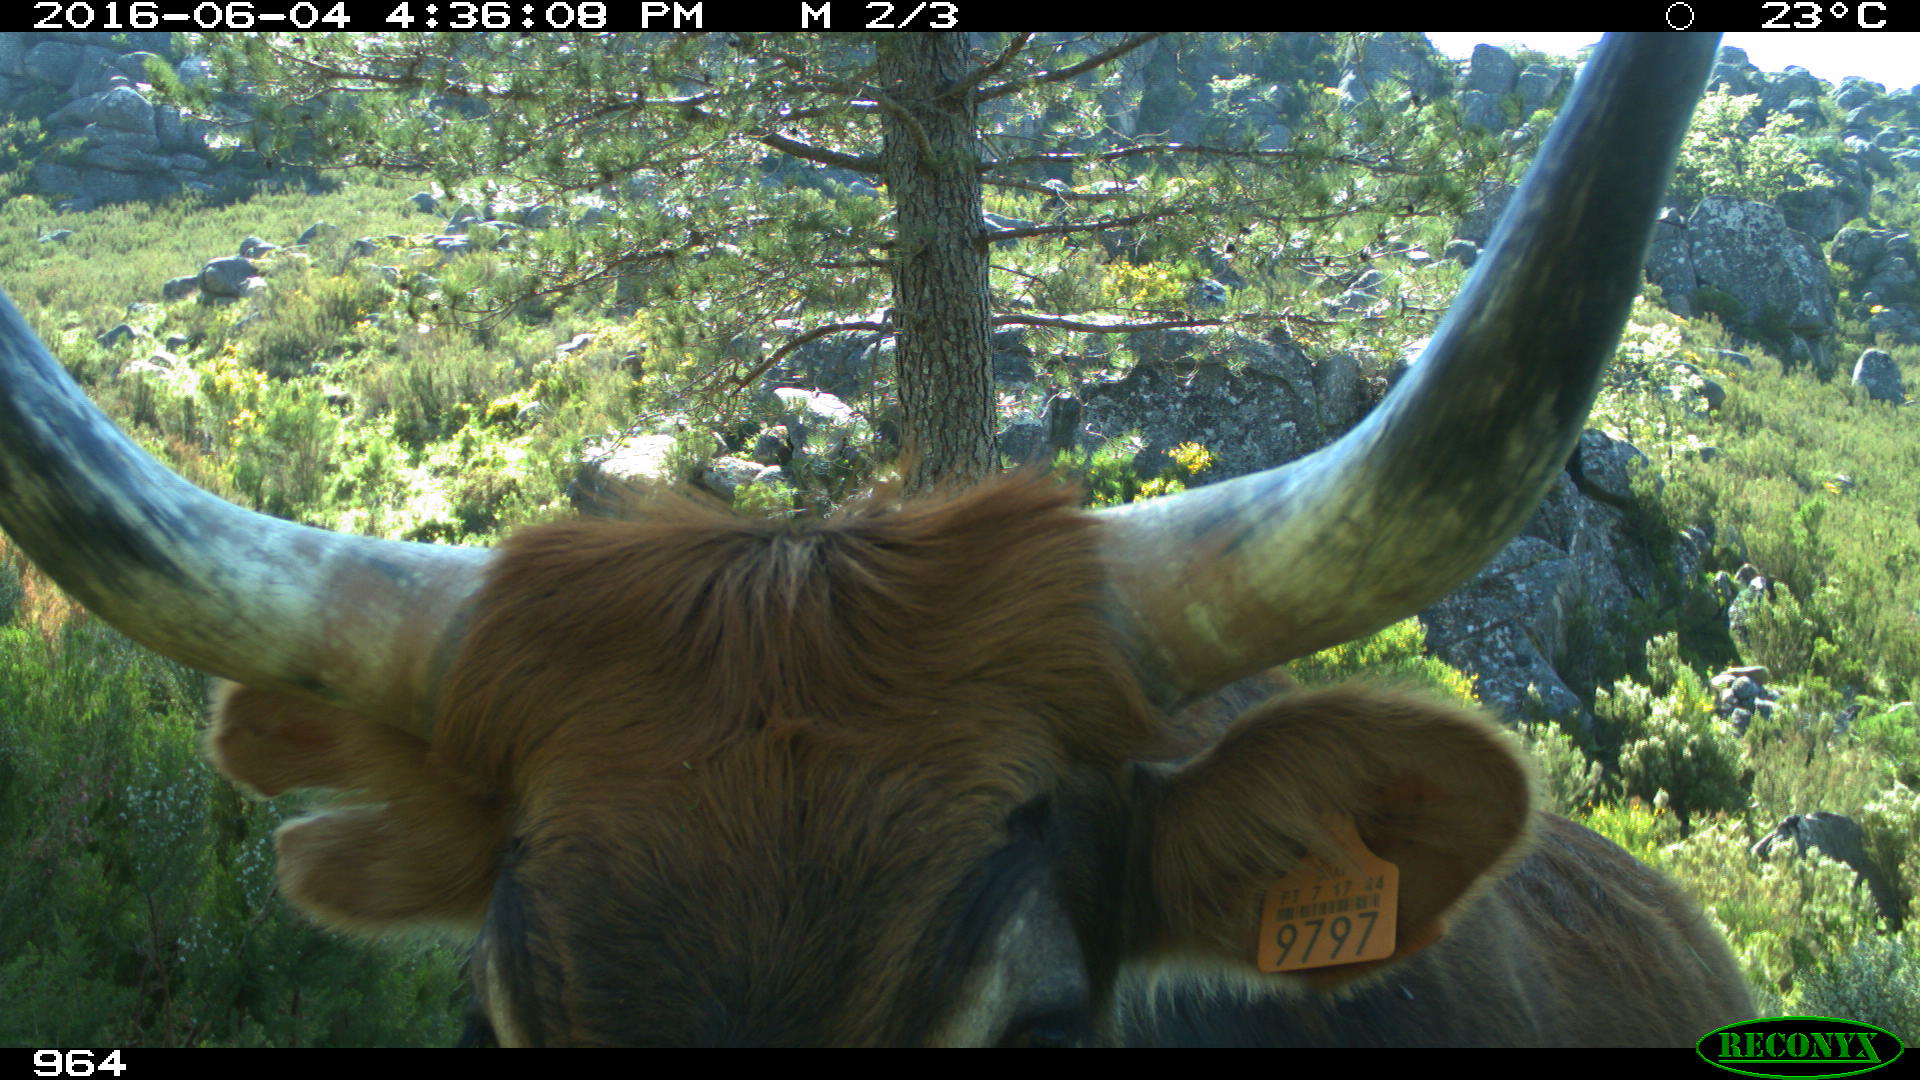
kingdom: Animalia
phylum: Chordata
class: Mammalia
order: Artiodactyla
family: Bovidae
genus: Bos
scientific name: Bos taurus
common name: Domesticated cattle
